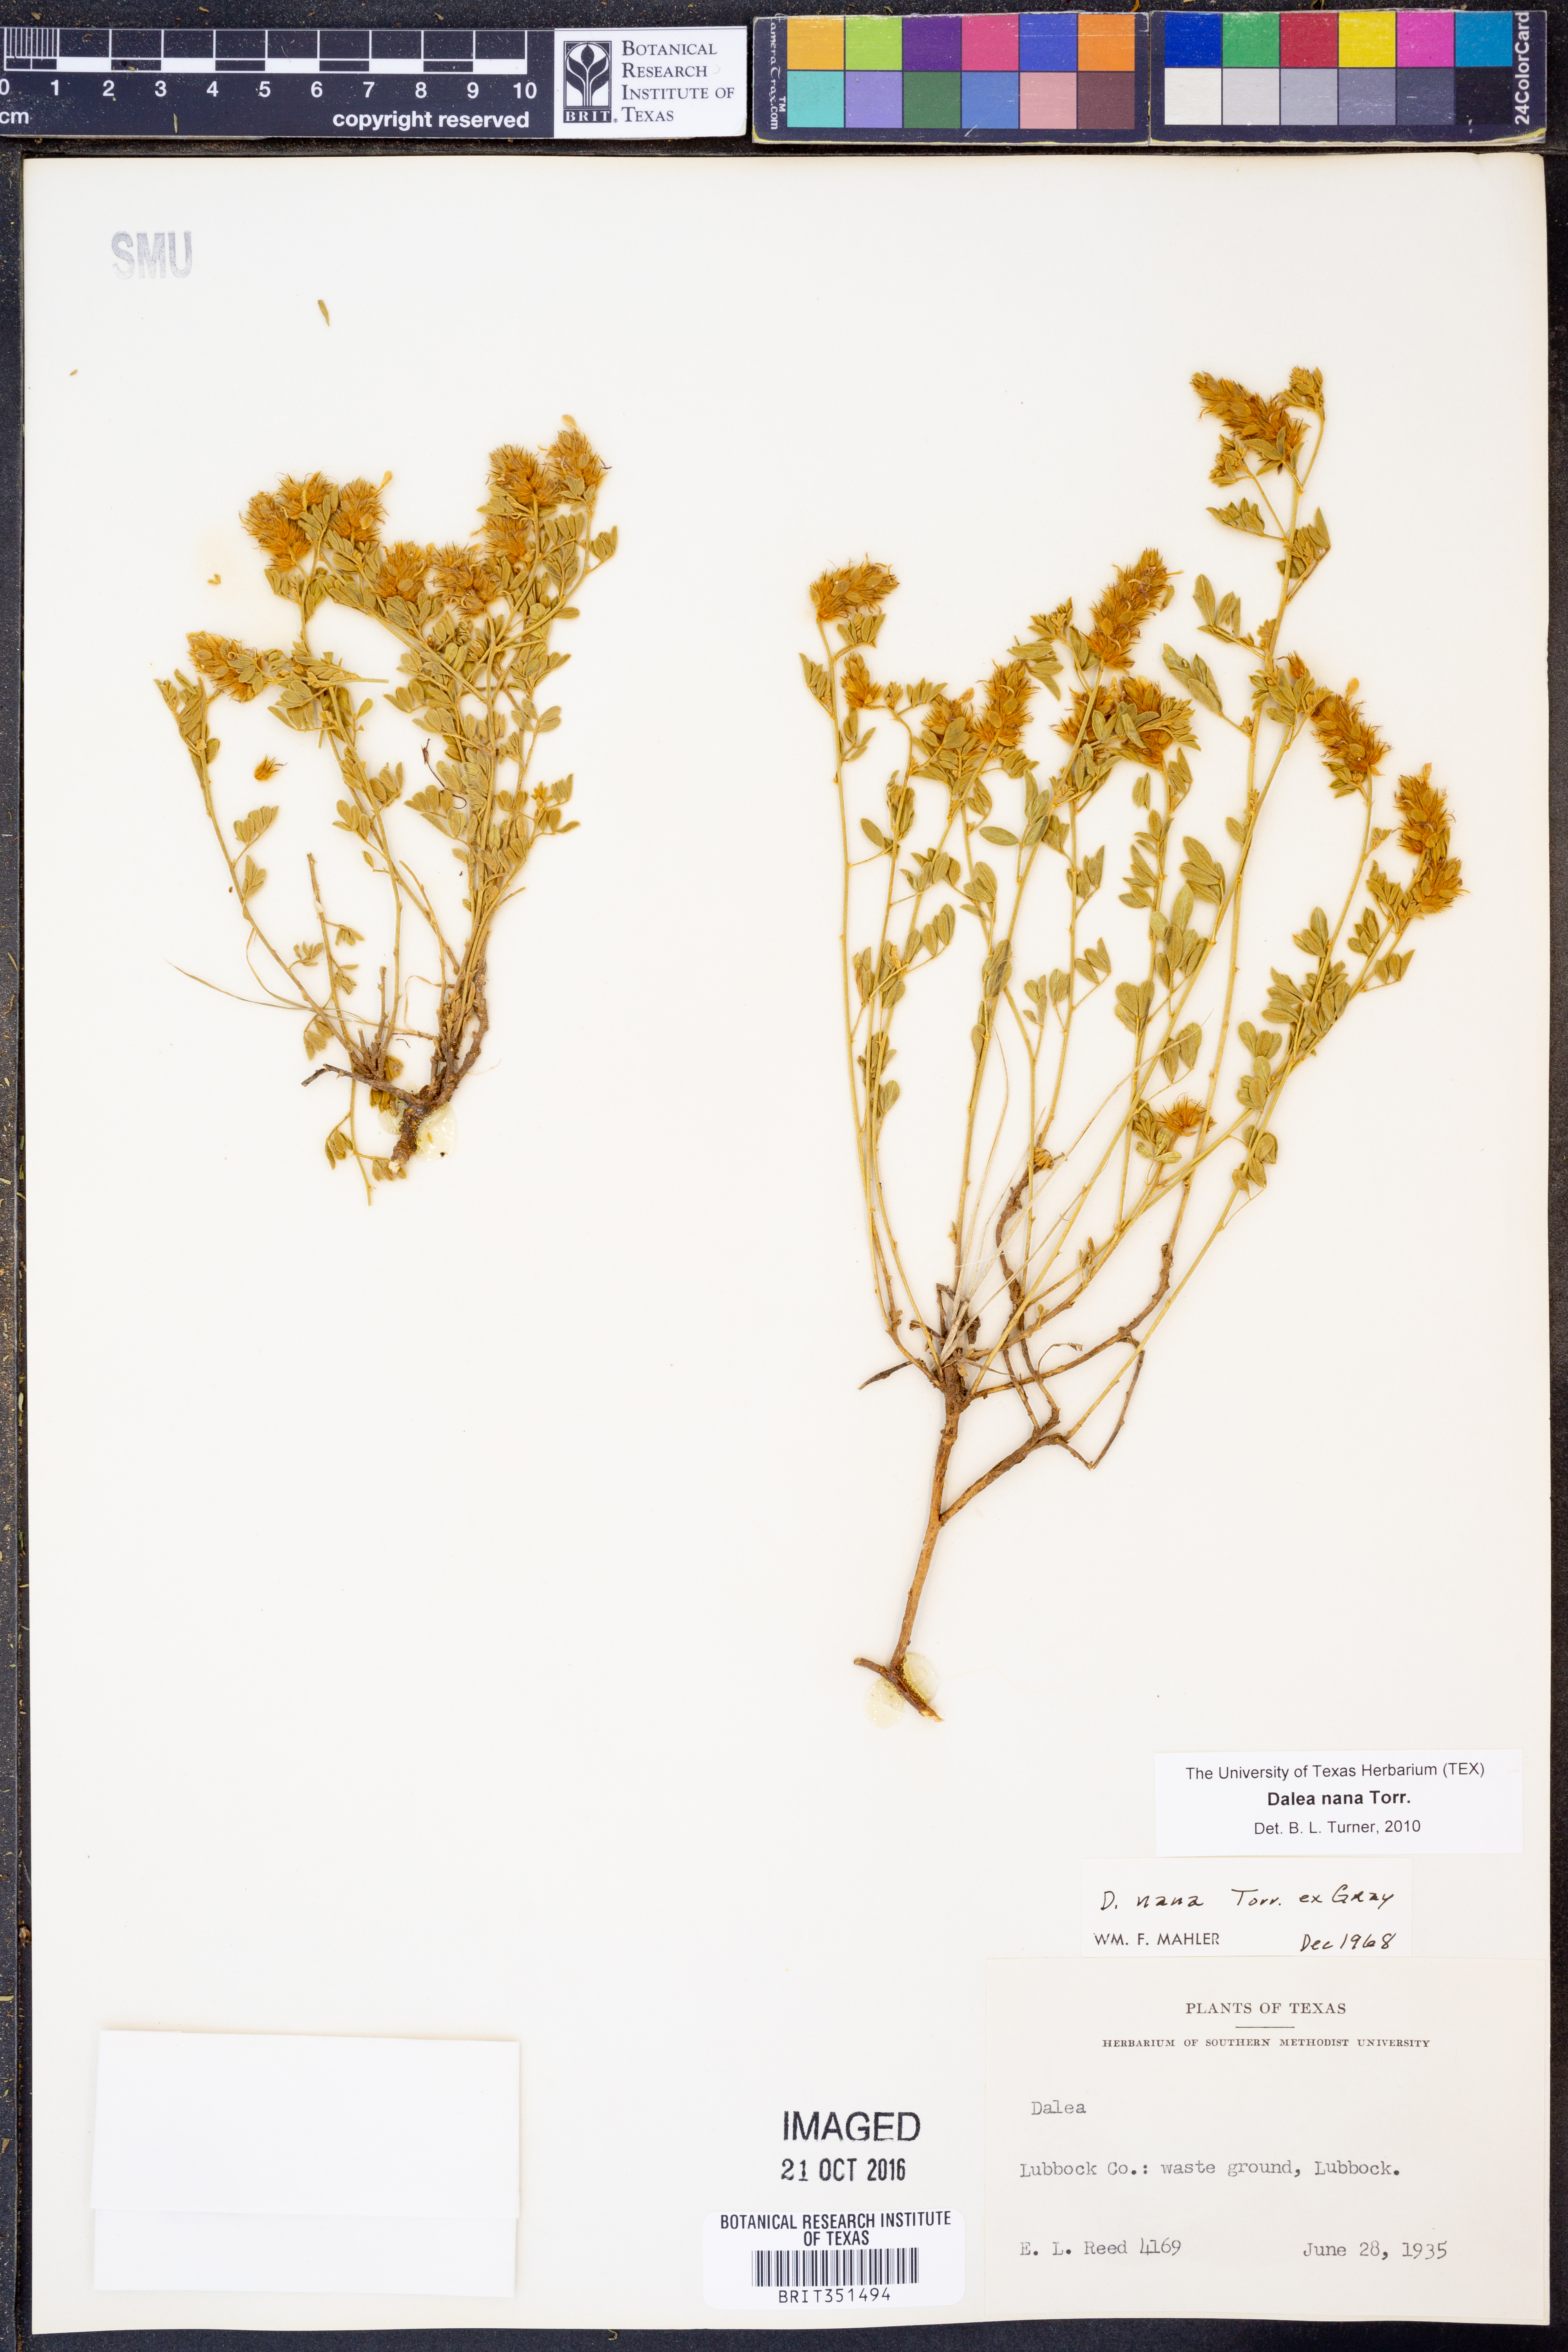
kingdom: Plantae
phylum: Tracheophyta
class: Magnoliopsida
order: Fabales
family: Fabaceae
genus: Dalea
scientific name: Dalea nana
